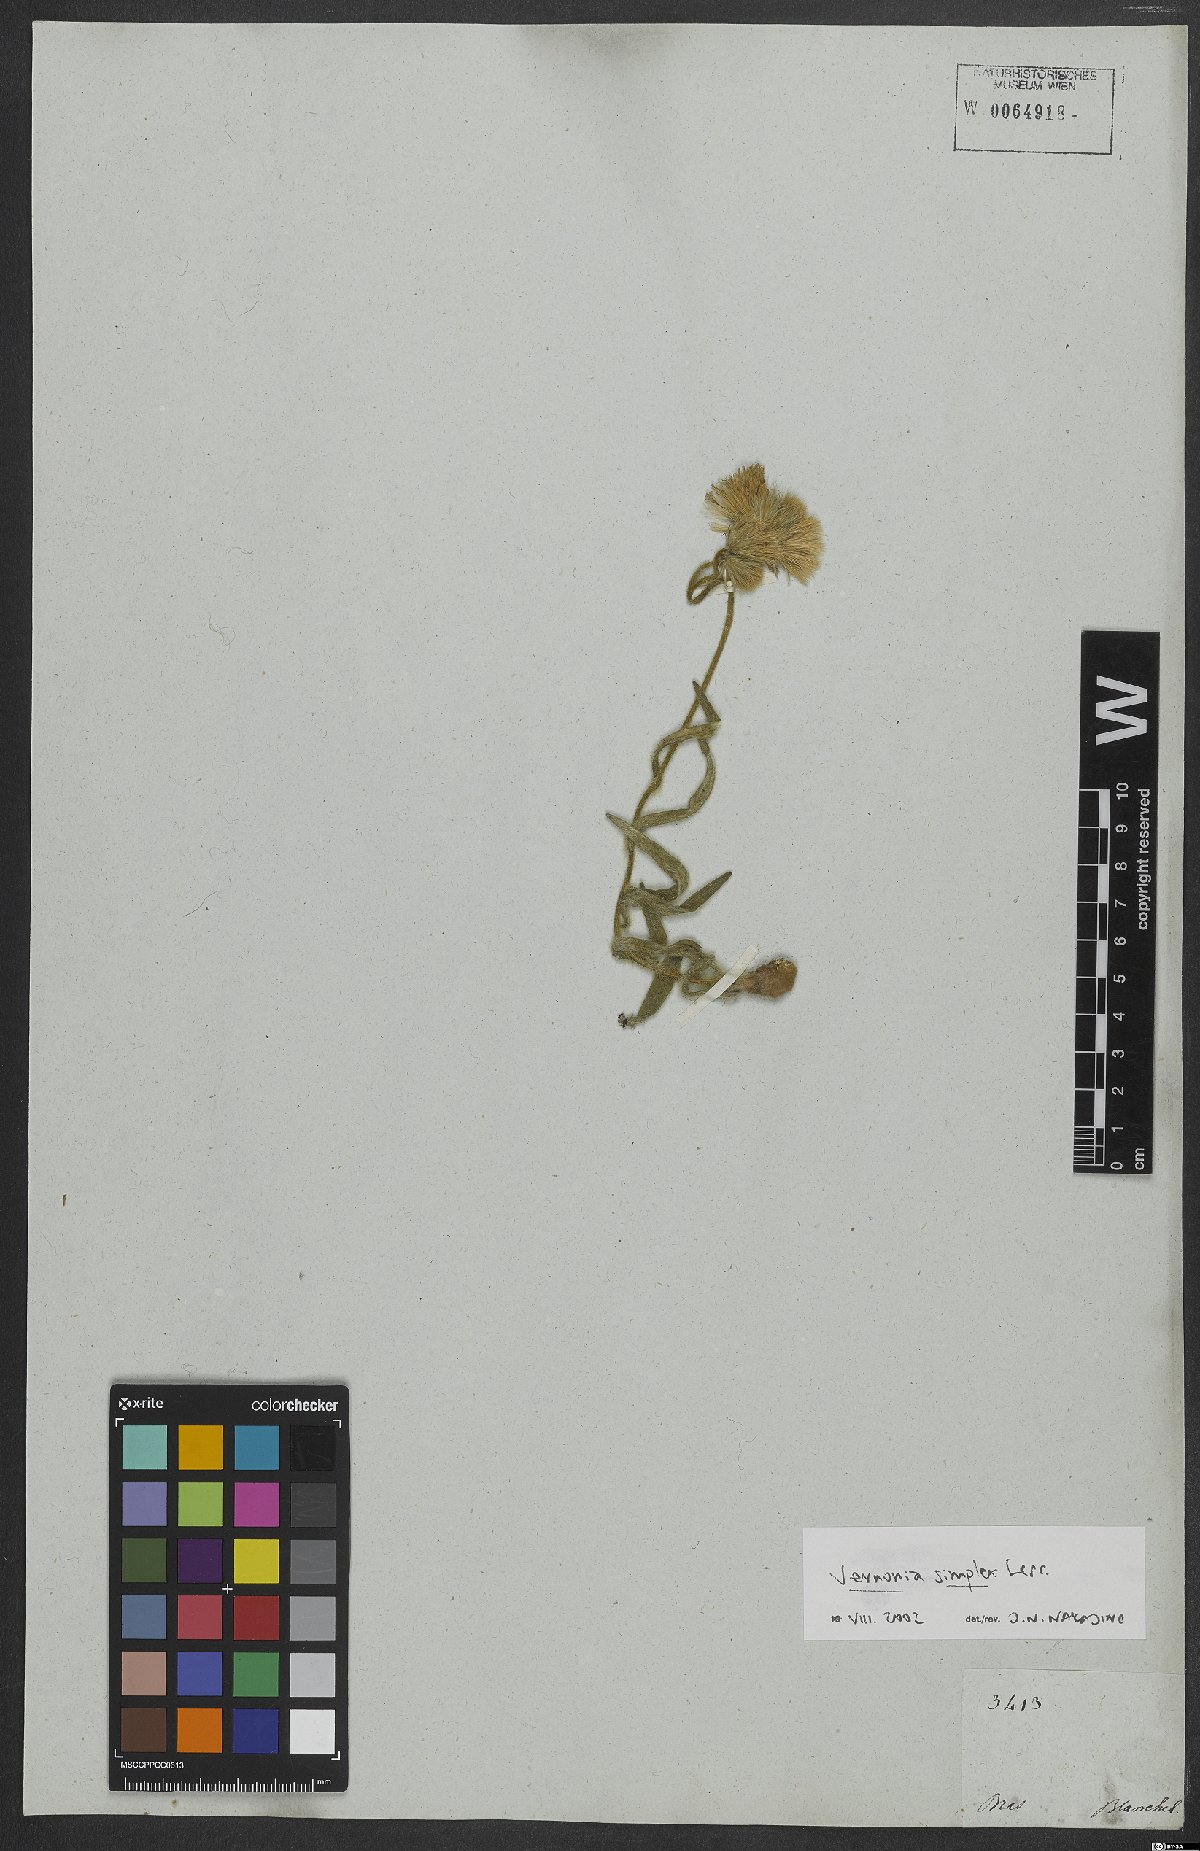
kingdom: Plantae
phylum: Tracheophyta
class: Magnoliopsida
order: Asterales
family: Asteraceae
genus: Chrysolaena
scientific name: Chrysolaena simplex
